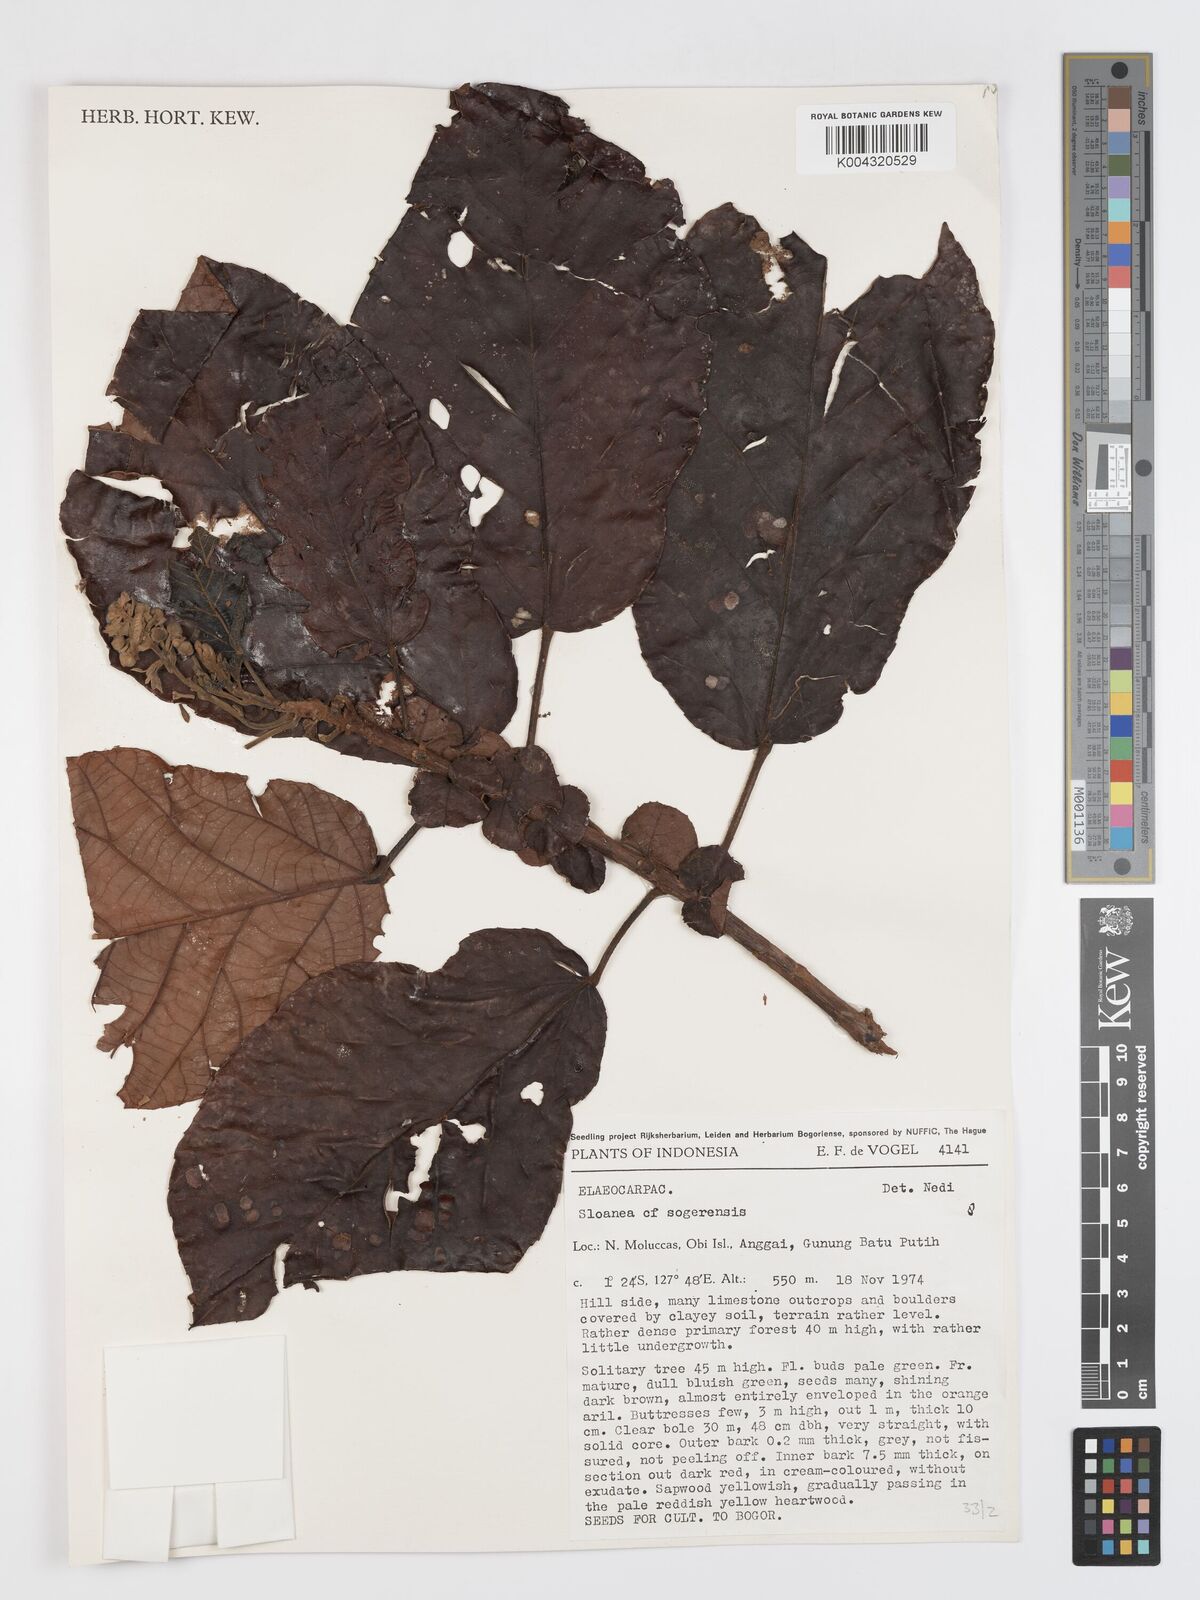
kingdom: Plantae
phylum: Tracheophyta
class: Magnoliopsida
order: Oxalidales
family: Elaeocarpaceae
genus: Sloanea
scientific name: Sloanea sogerensis
